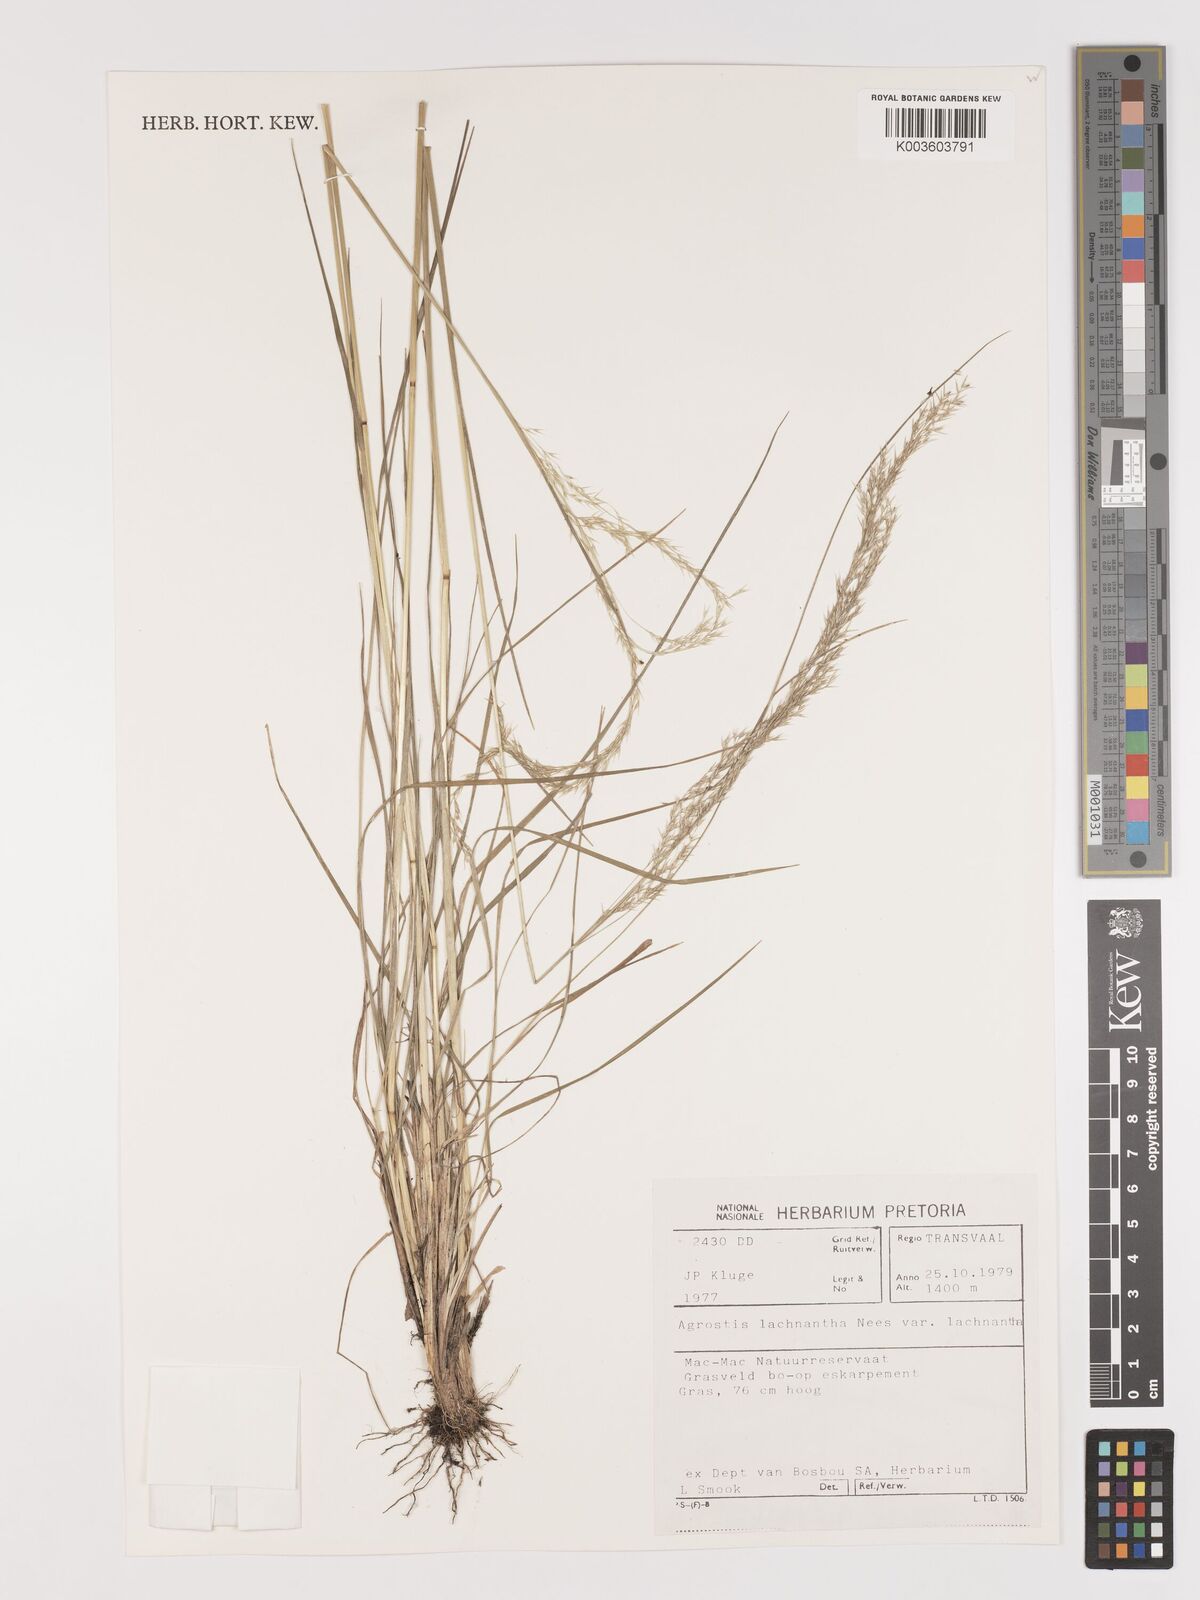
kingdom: Plantae
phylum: Tracheophyta
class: Liliopsida
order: Poales
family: Poaceae
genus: Lachnagrostis
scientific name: Lachnagrostis lachnantha
